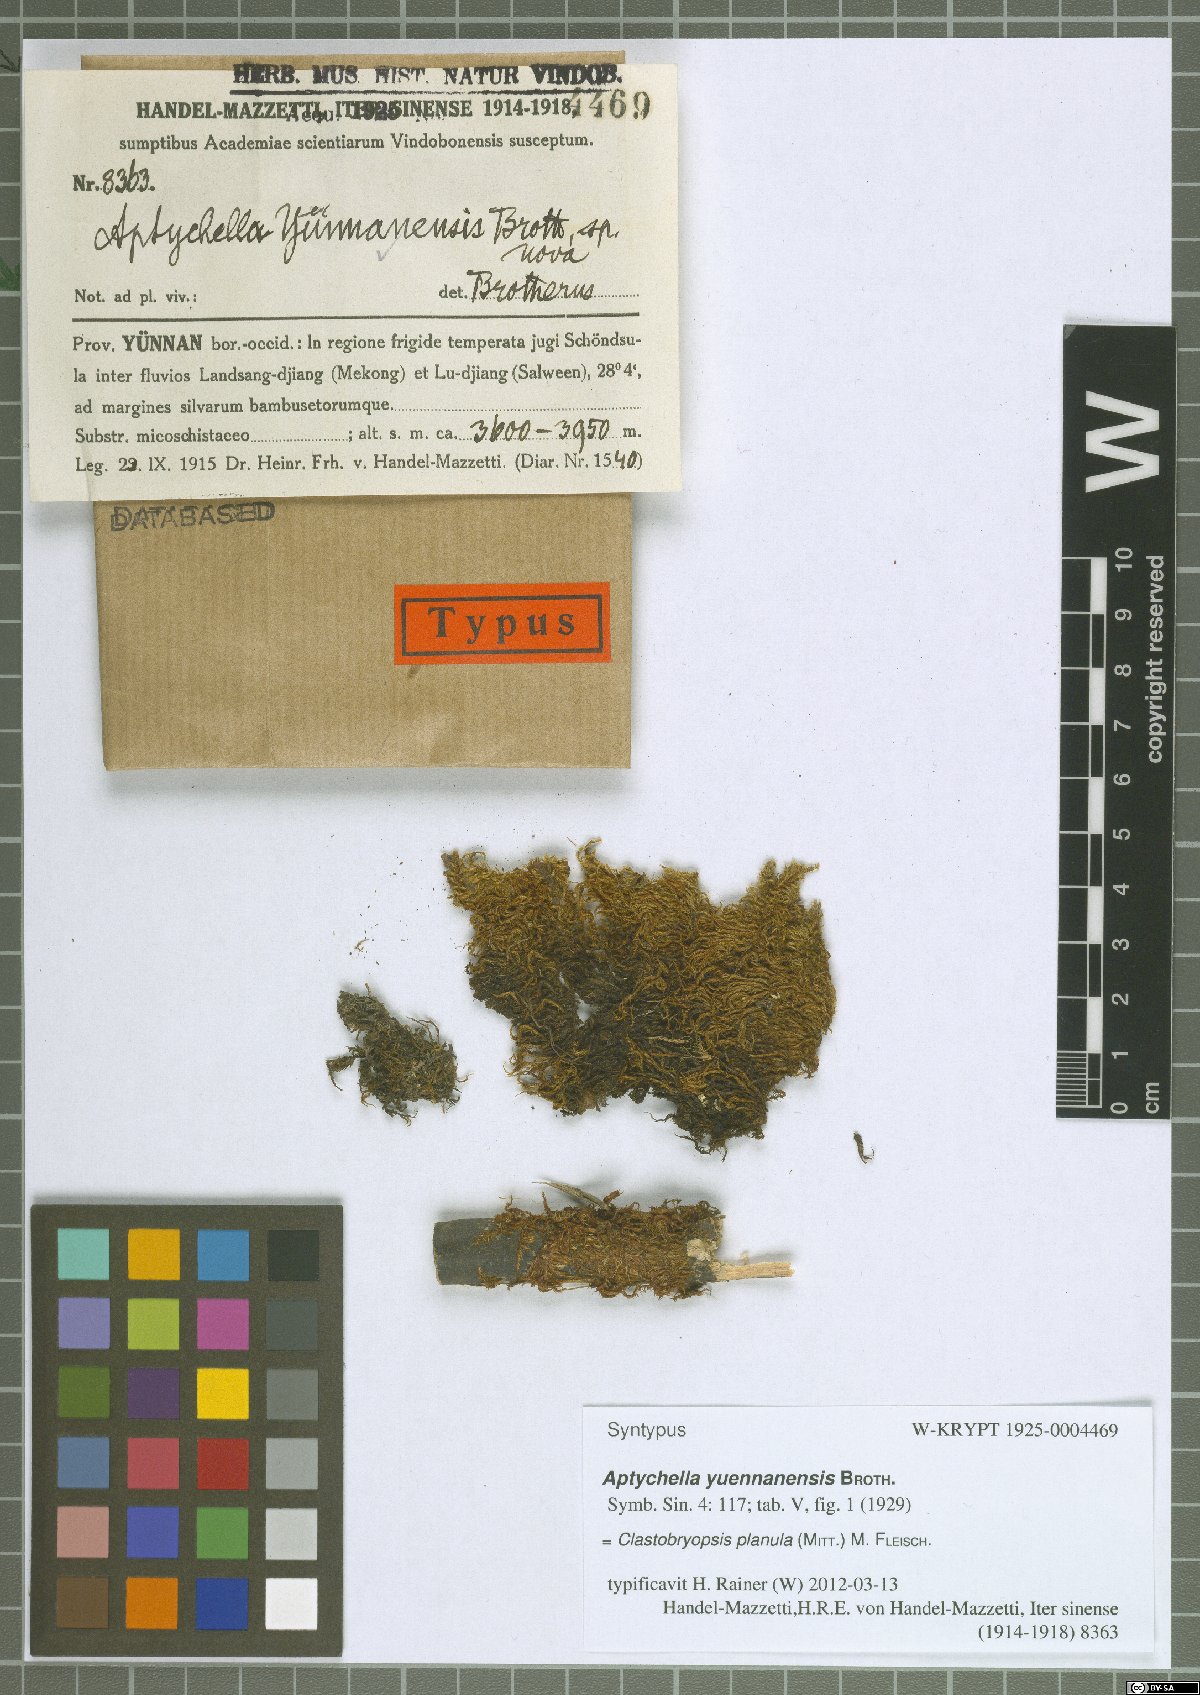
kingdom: Plantae
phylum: Bryophyta
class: Bryopsida
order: Hypnales
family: Pylaisiadelphaceae
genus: Aptychella
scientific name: Aptychella planula
